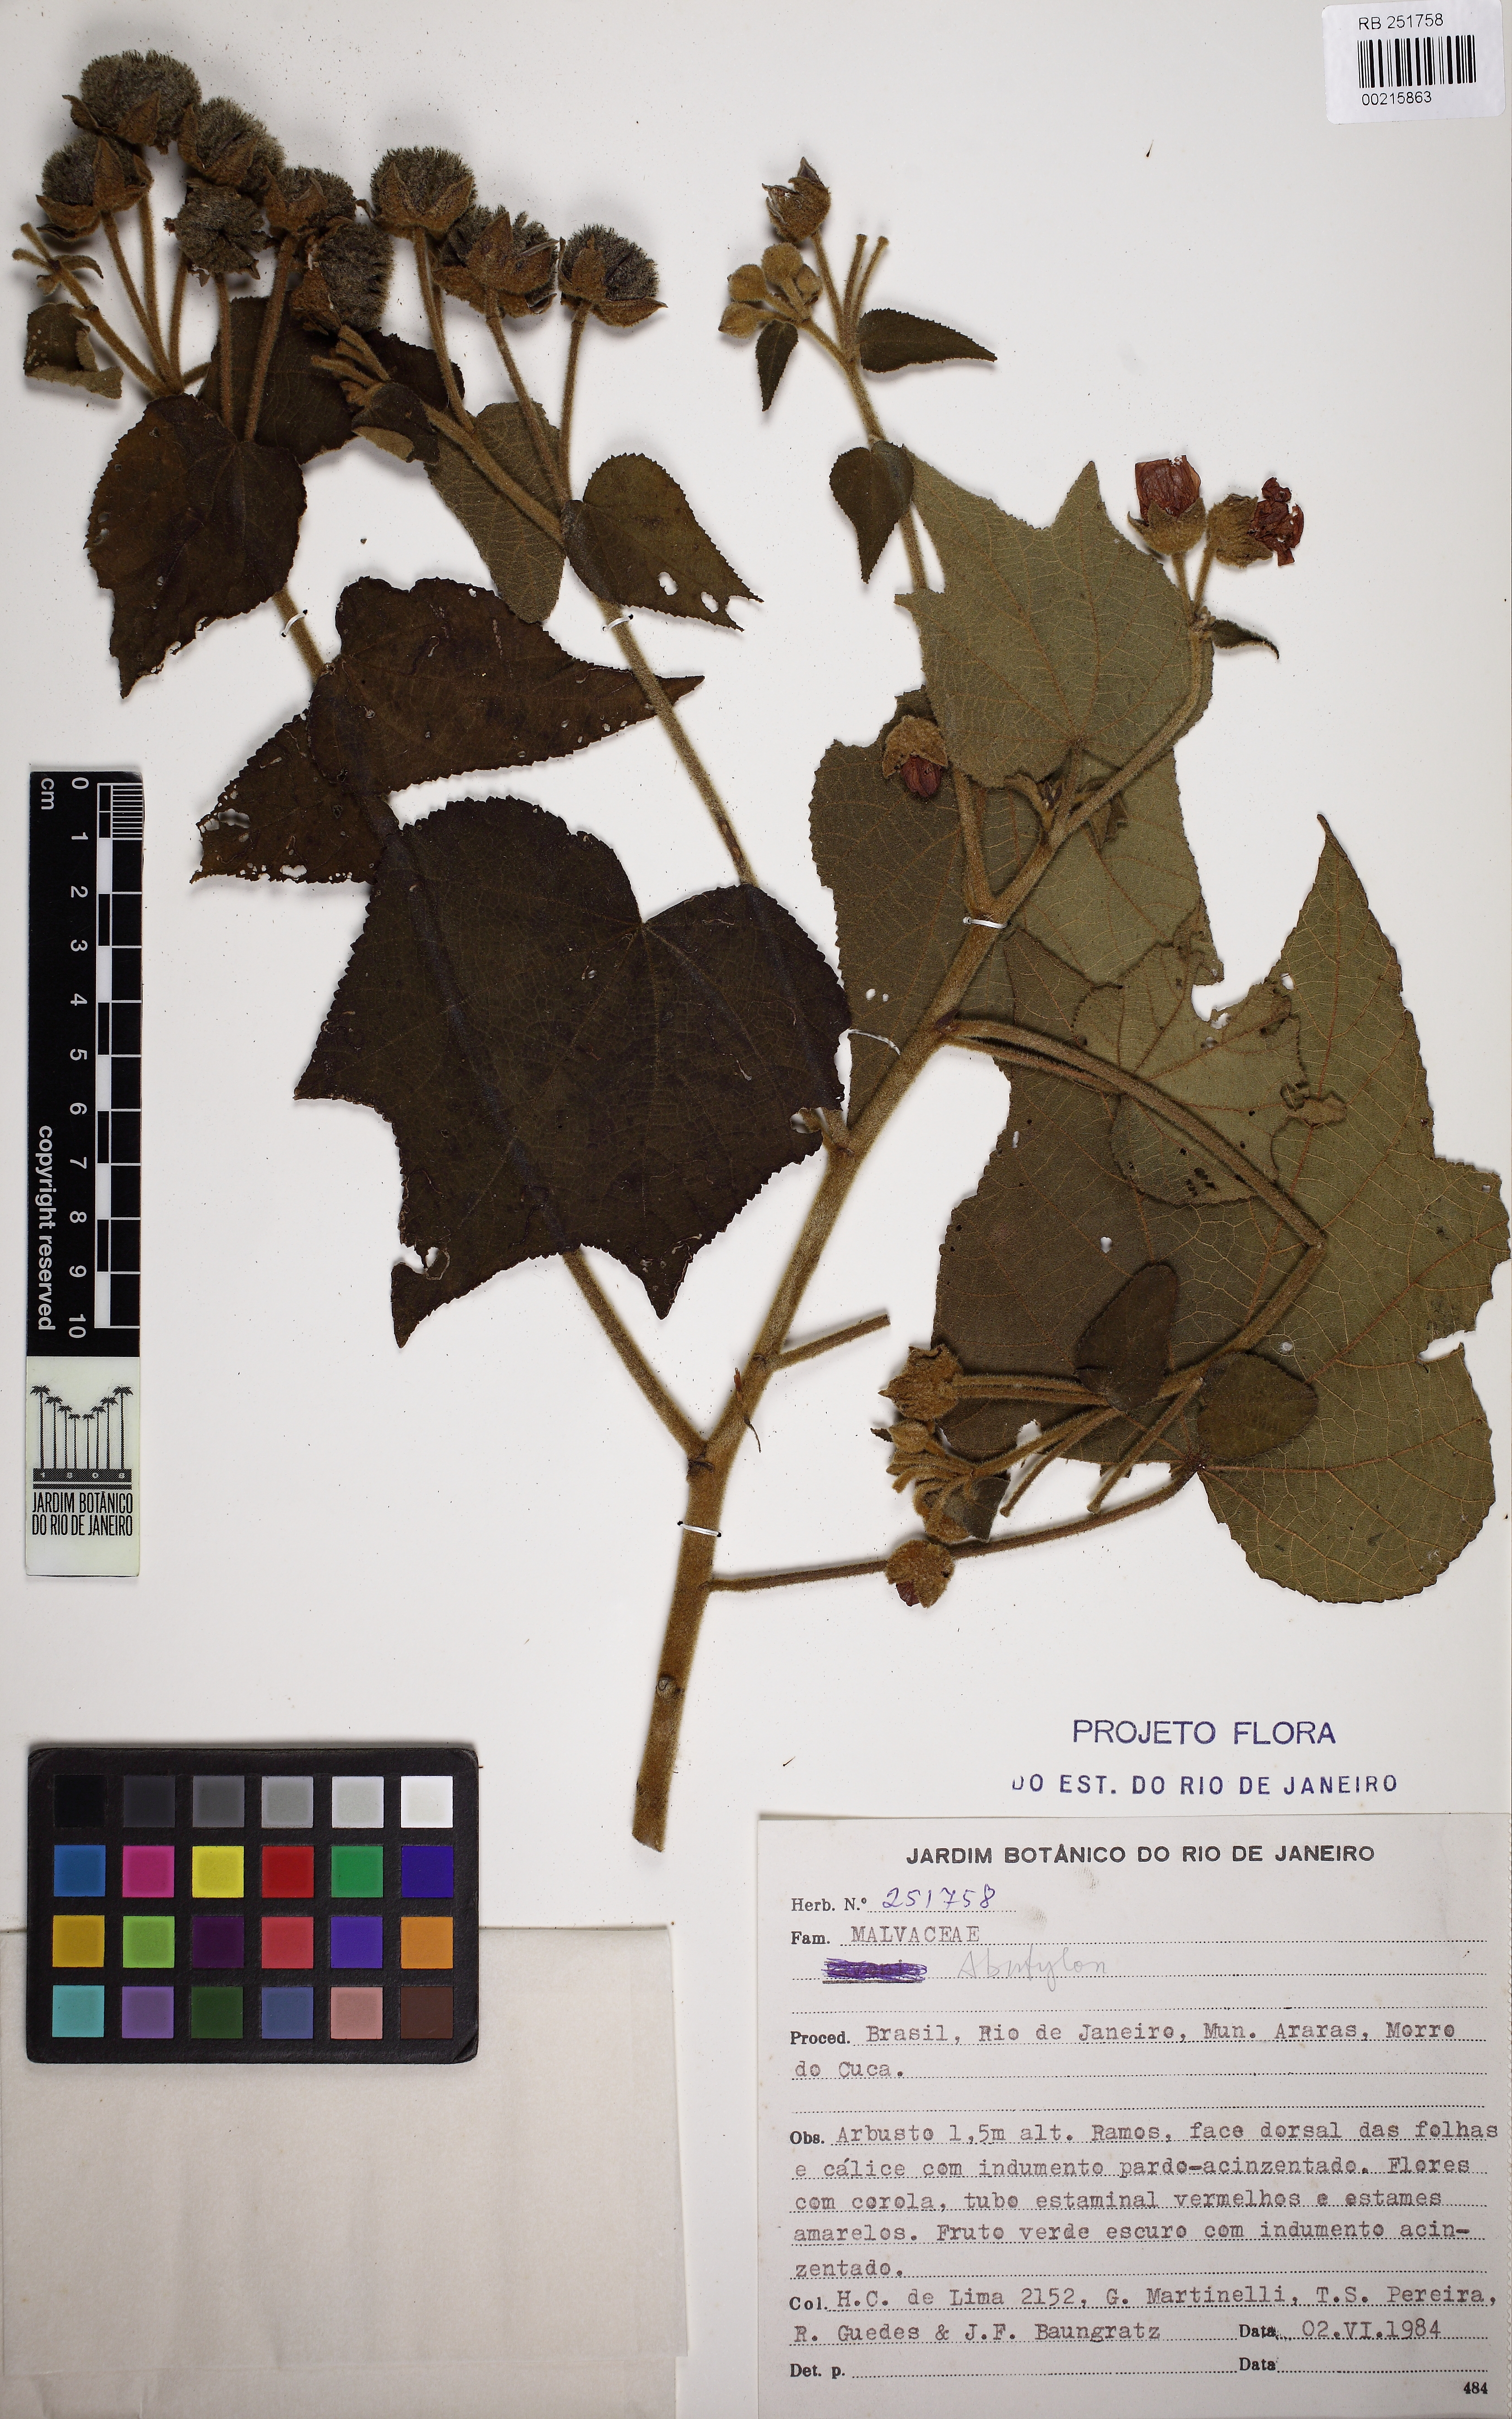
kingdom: Plantae
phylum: Tracheophyta
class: Magnoliopsida
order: Malvales
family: Malvaceae
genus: Callianthe
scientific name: Callianthe regnellii
